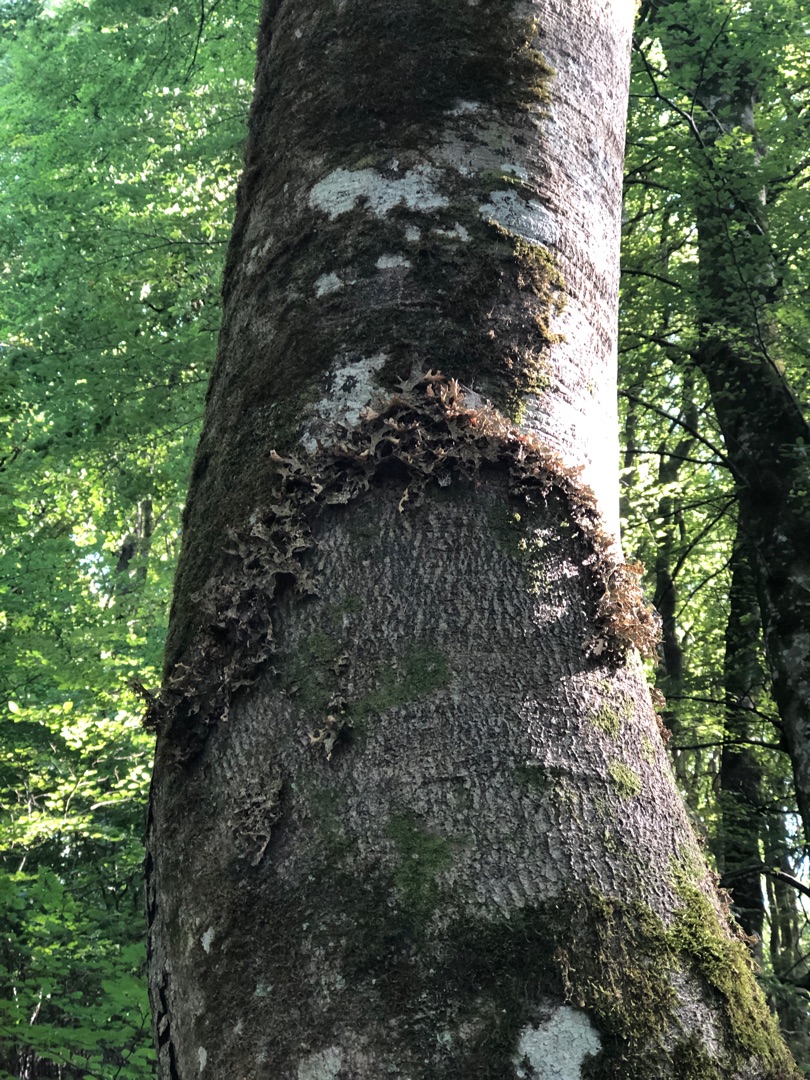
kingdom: Fungi
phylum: Ascomycota
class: Lecanoromycetes
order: Peltigerales
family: Lobariaceae
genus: Lobaria
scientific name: Lobaria pulmonaria
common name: Almindelig lungelav
